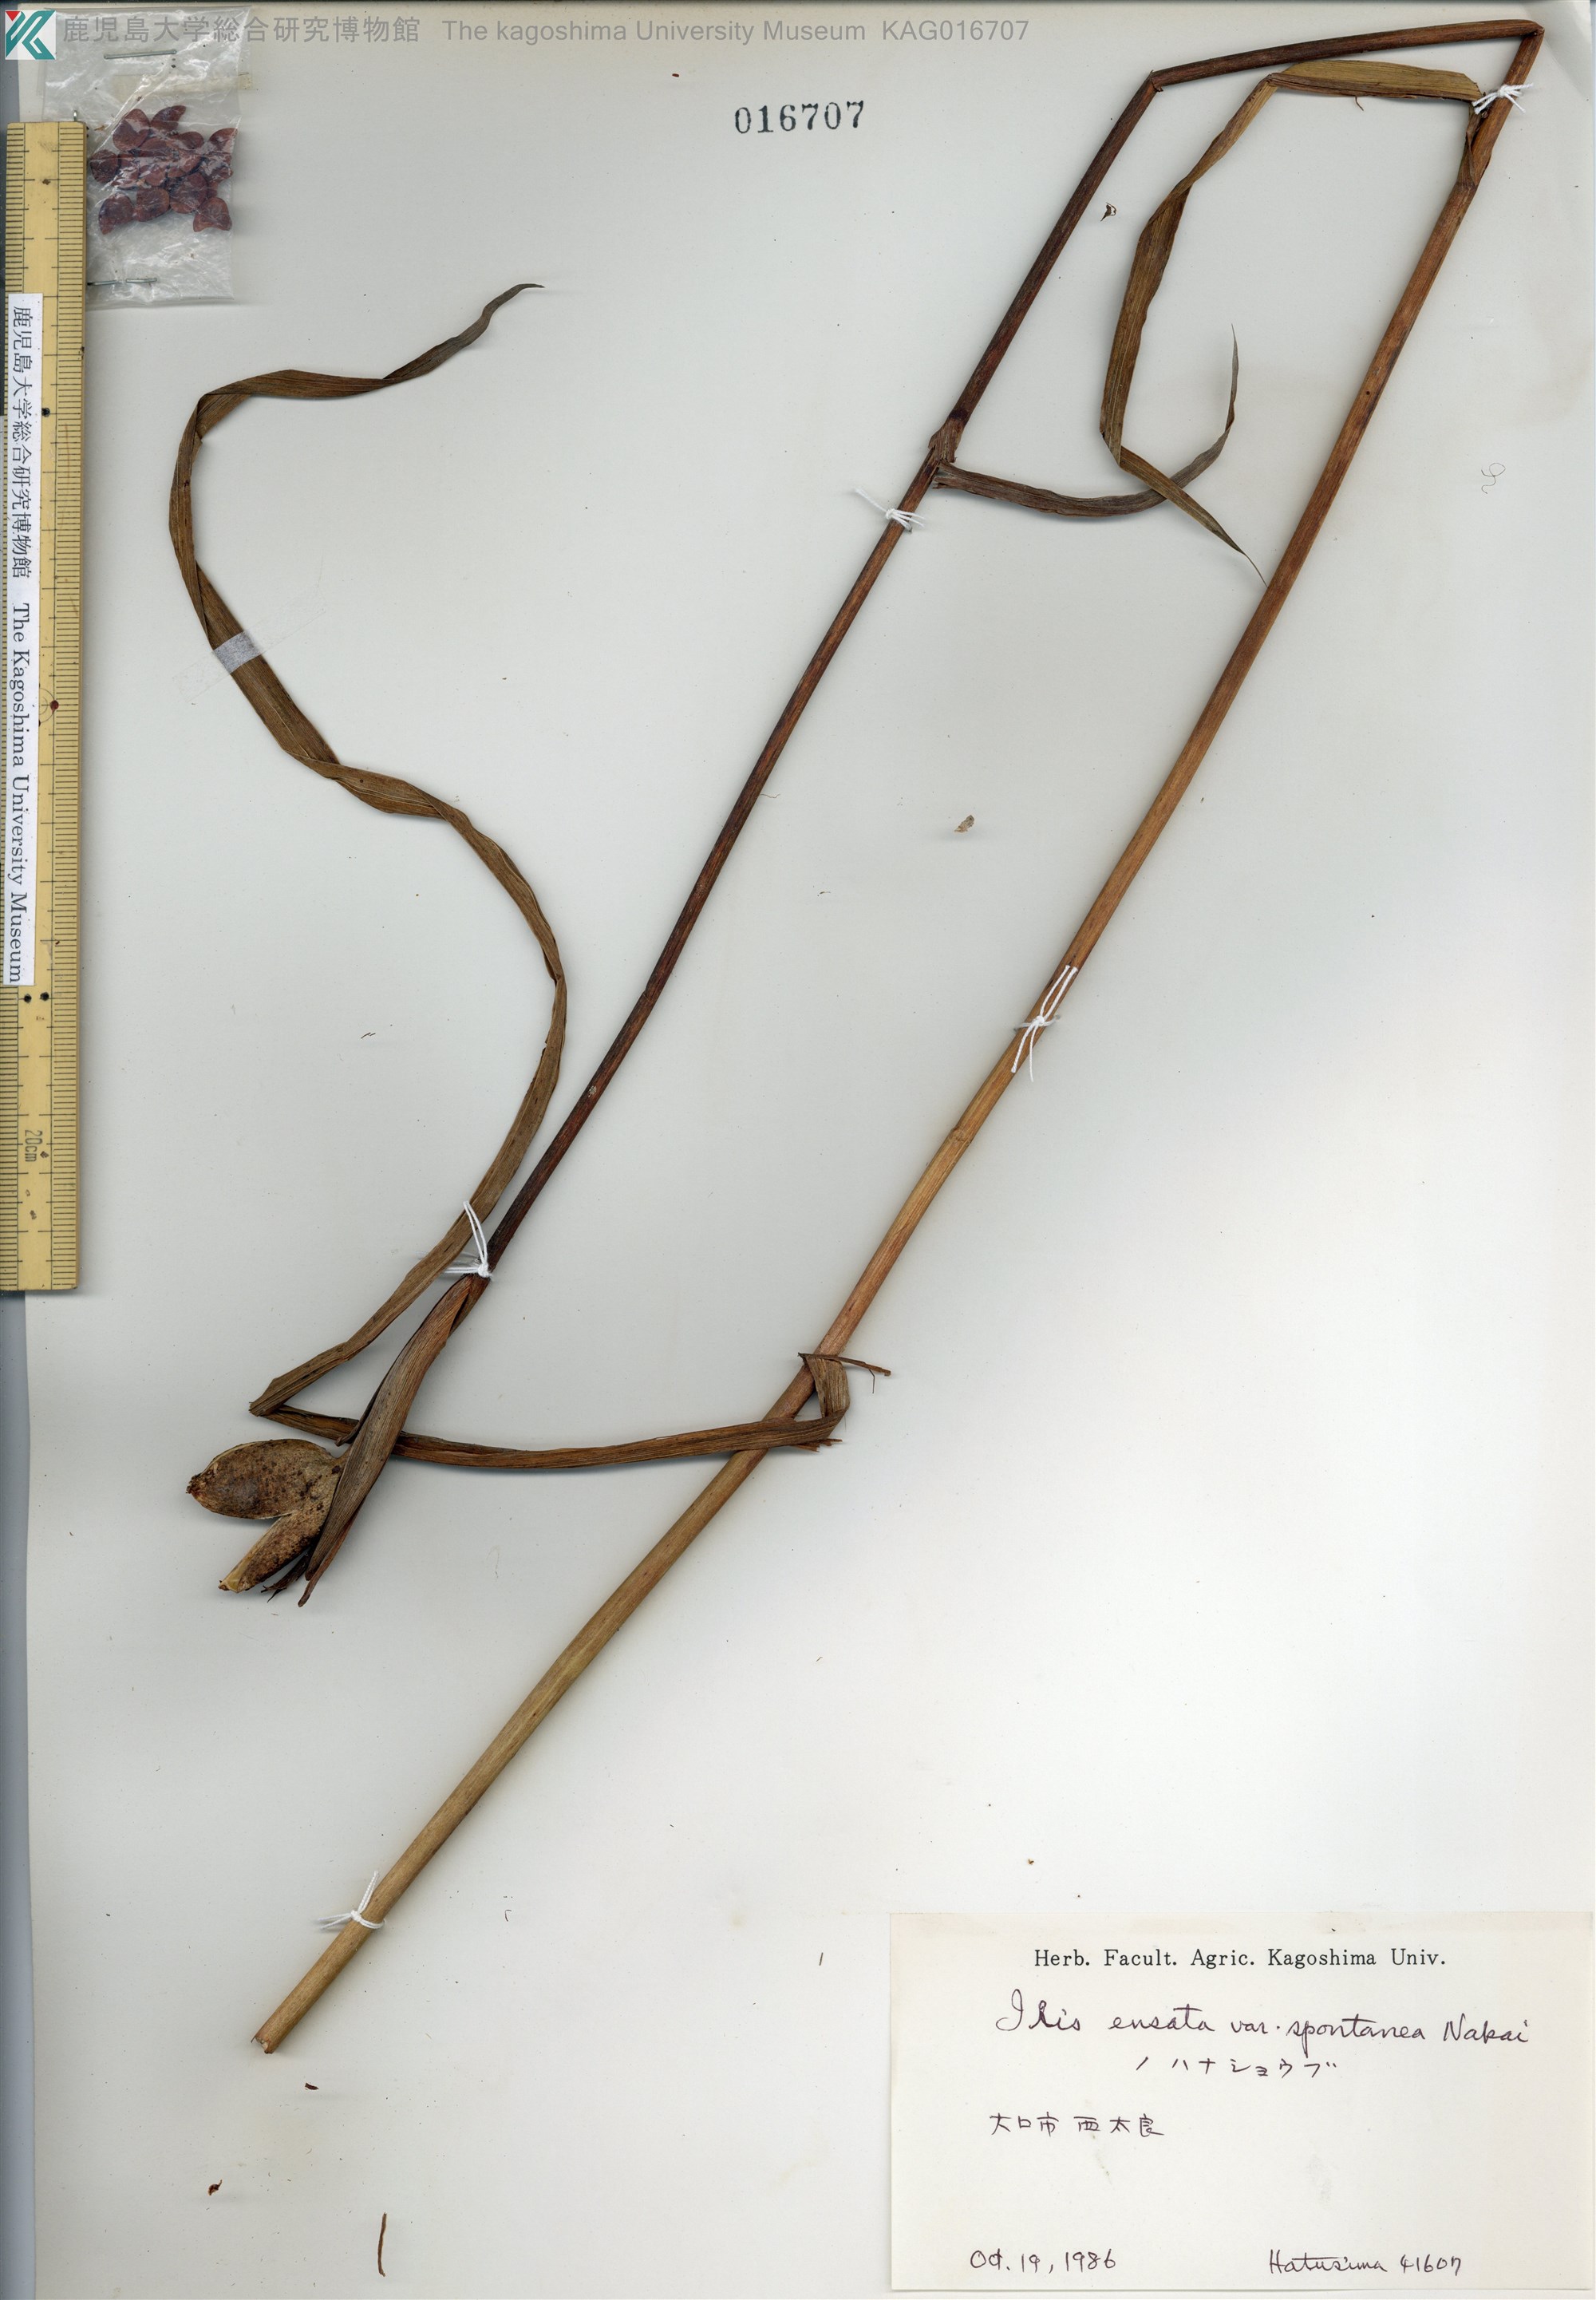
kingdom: Plantae
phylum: Tracheophyta
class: Liliopsida
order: Asparagales
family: Iridaceae
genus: Iris
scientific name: Iris ensata
